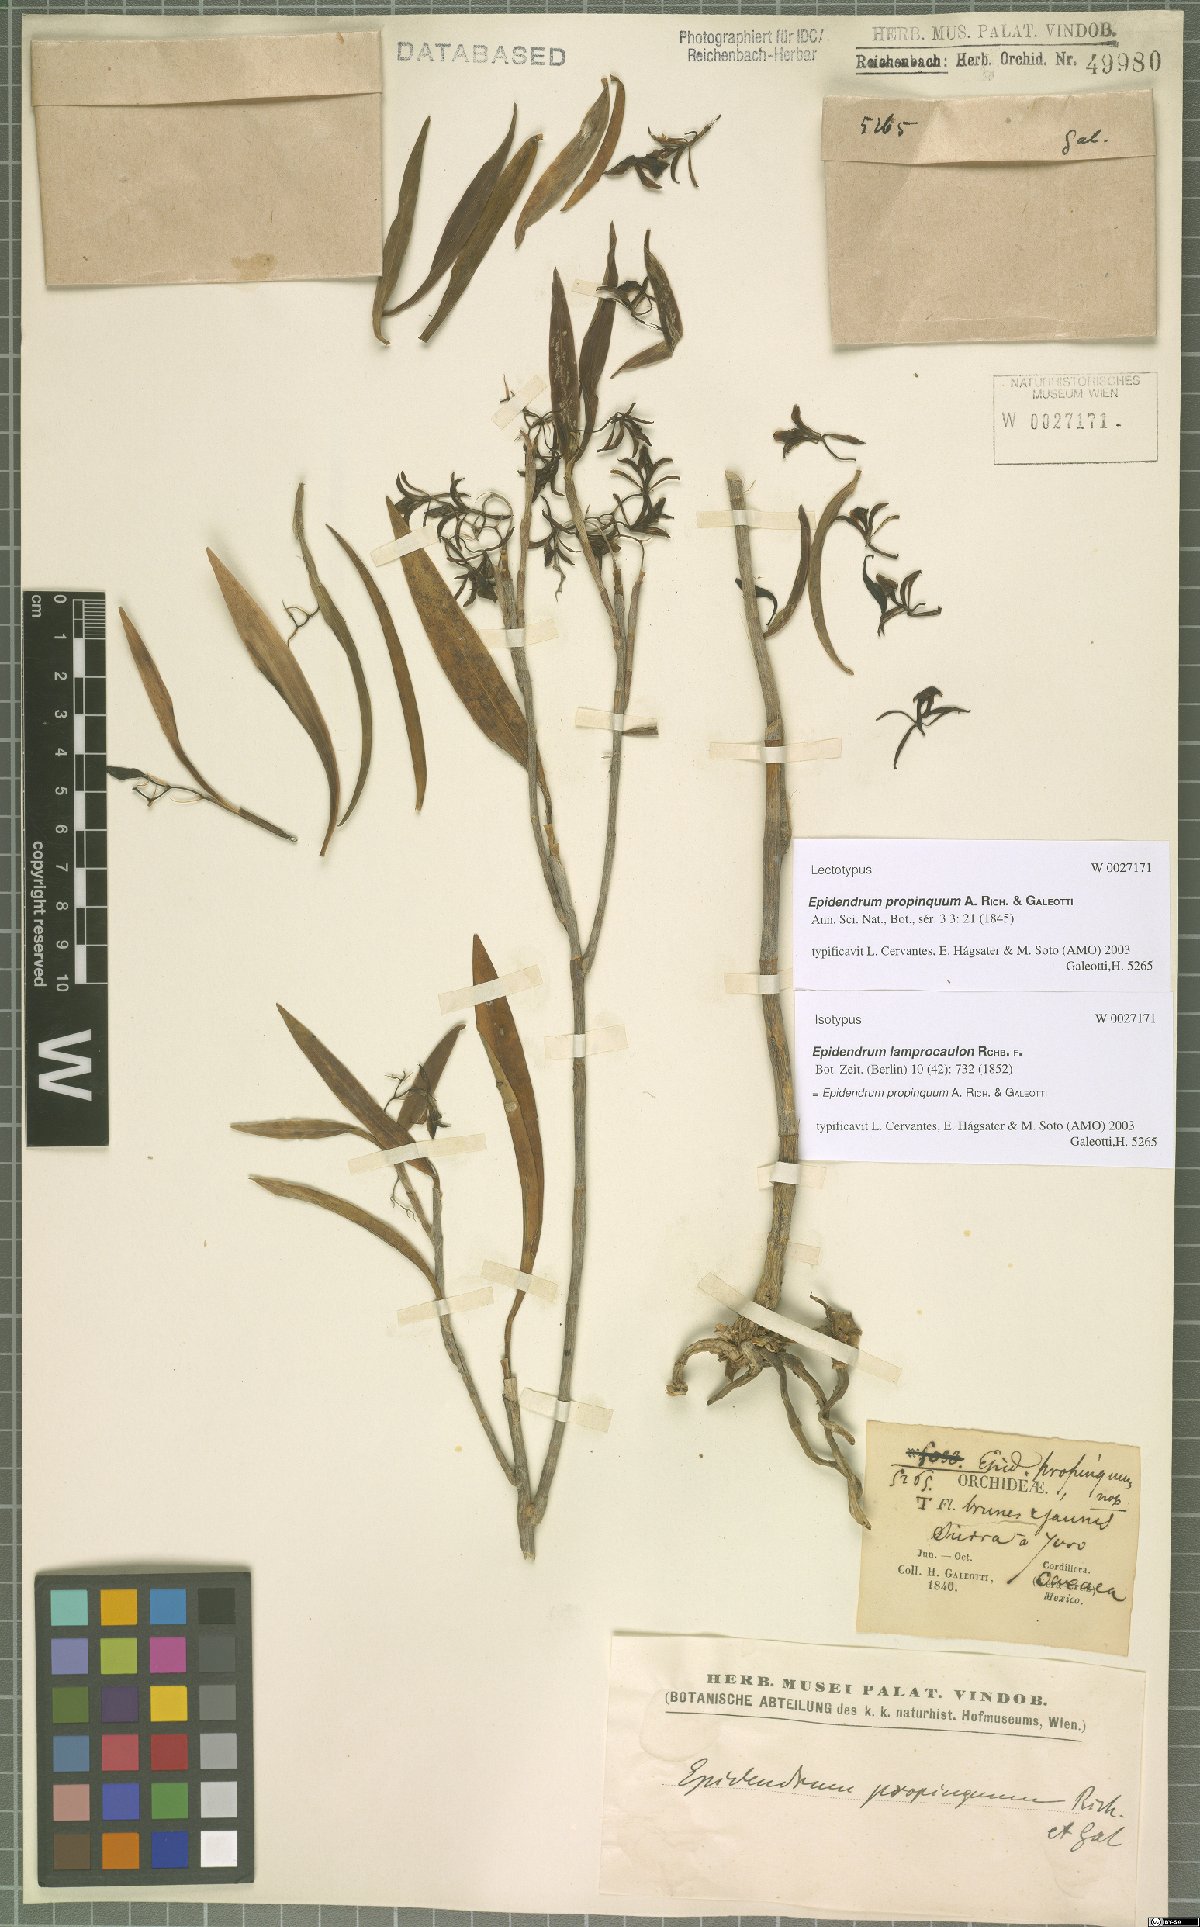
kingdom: Plantae
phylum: Tracheophyta
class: Liliopsida
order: Asparagales
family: Orchidaceae
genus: Epidendrum
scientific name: Epidendrum propinquum
